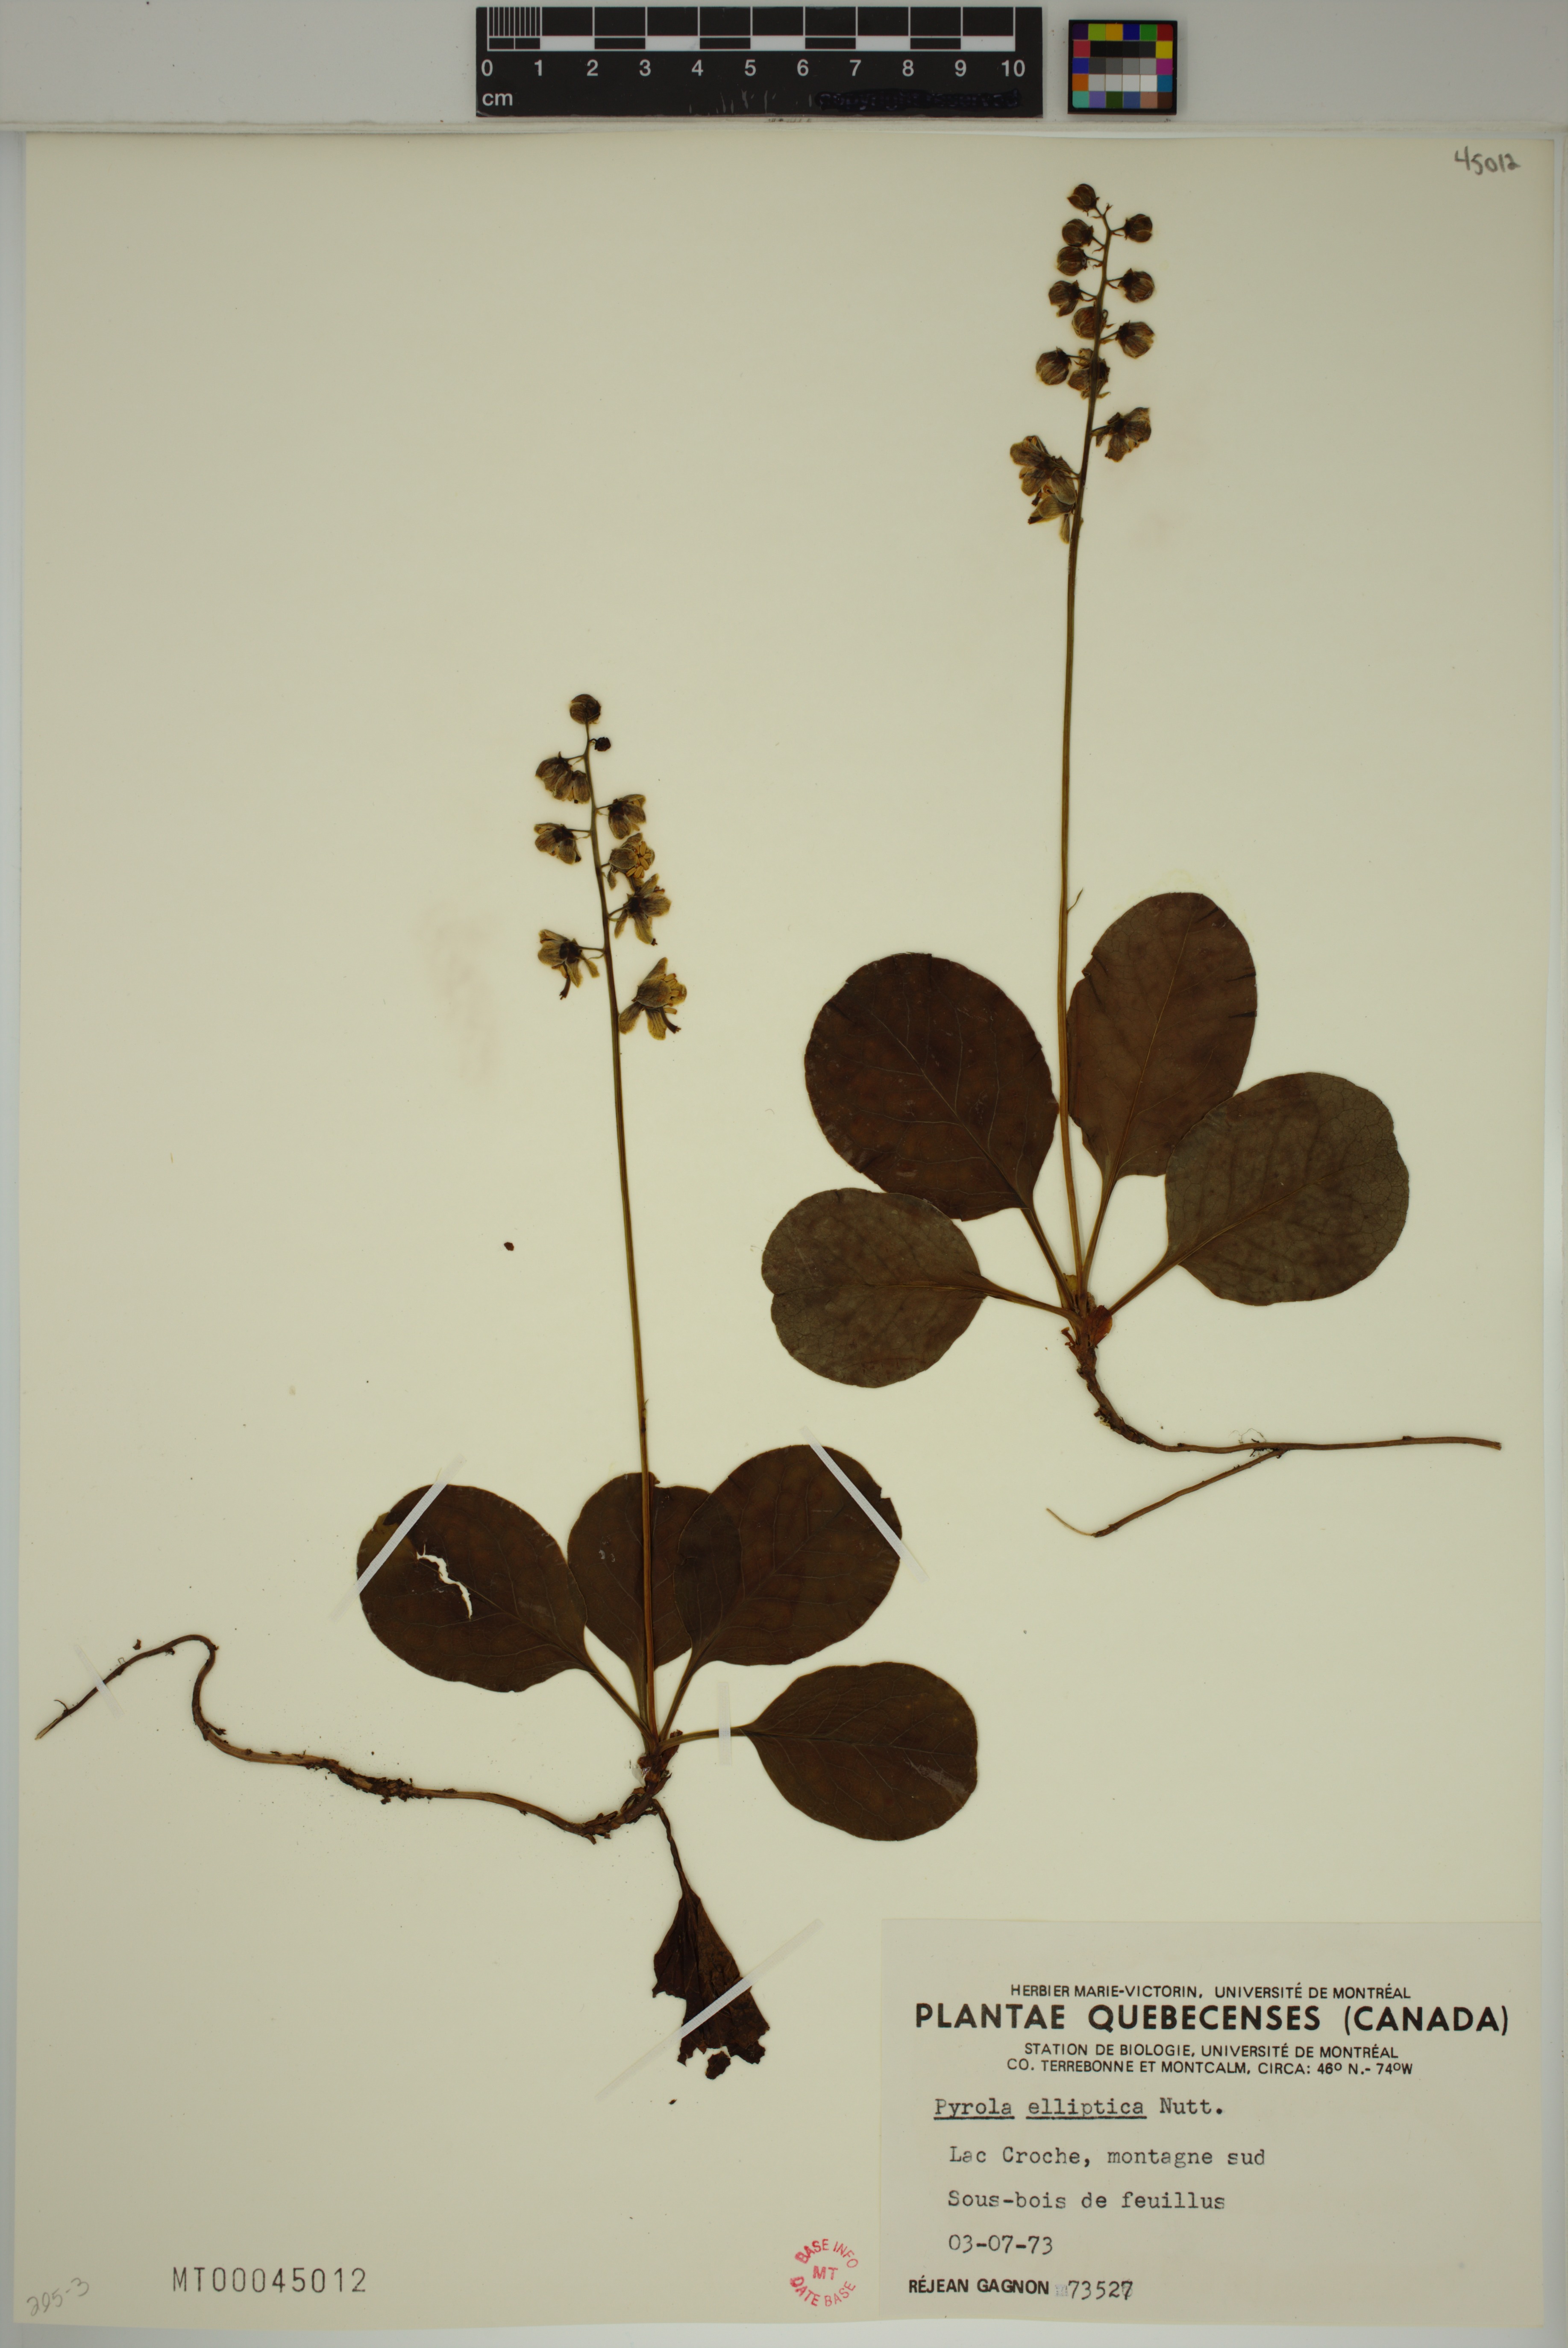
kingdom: Plantae
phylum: Tracheophyta
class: Magnoliopsida
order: Ericales
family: Ericaceae
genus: Pyrola
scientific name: Pyrola elliptica
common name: Shinleaf
